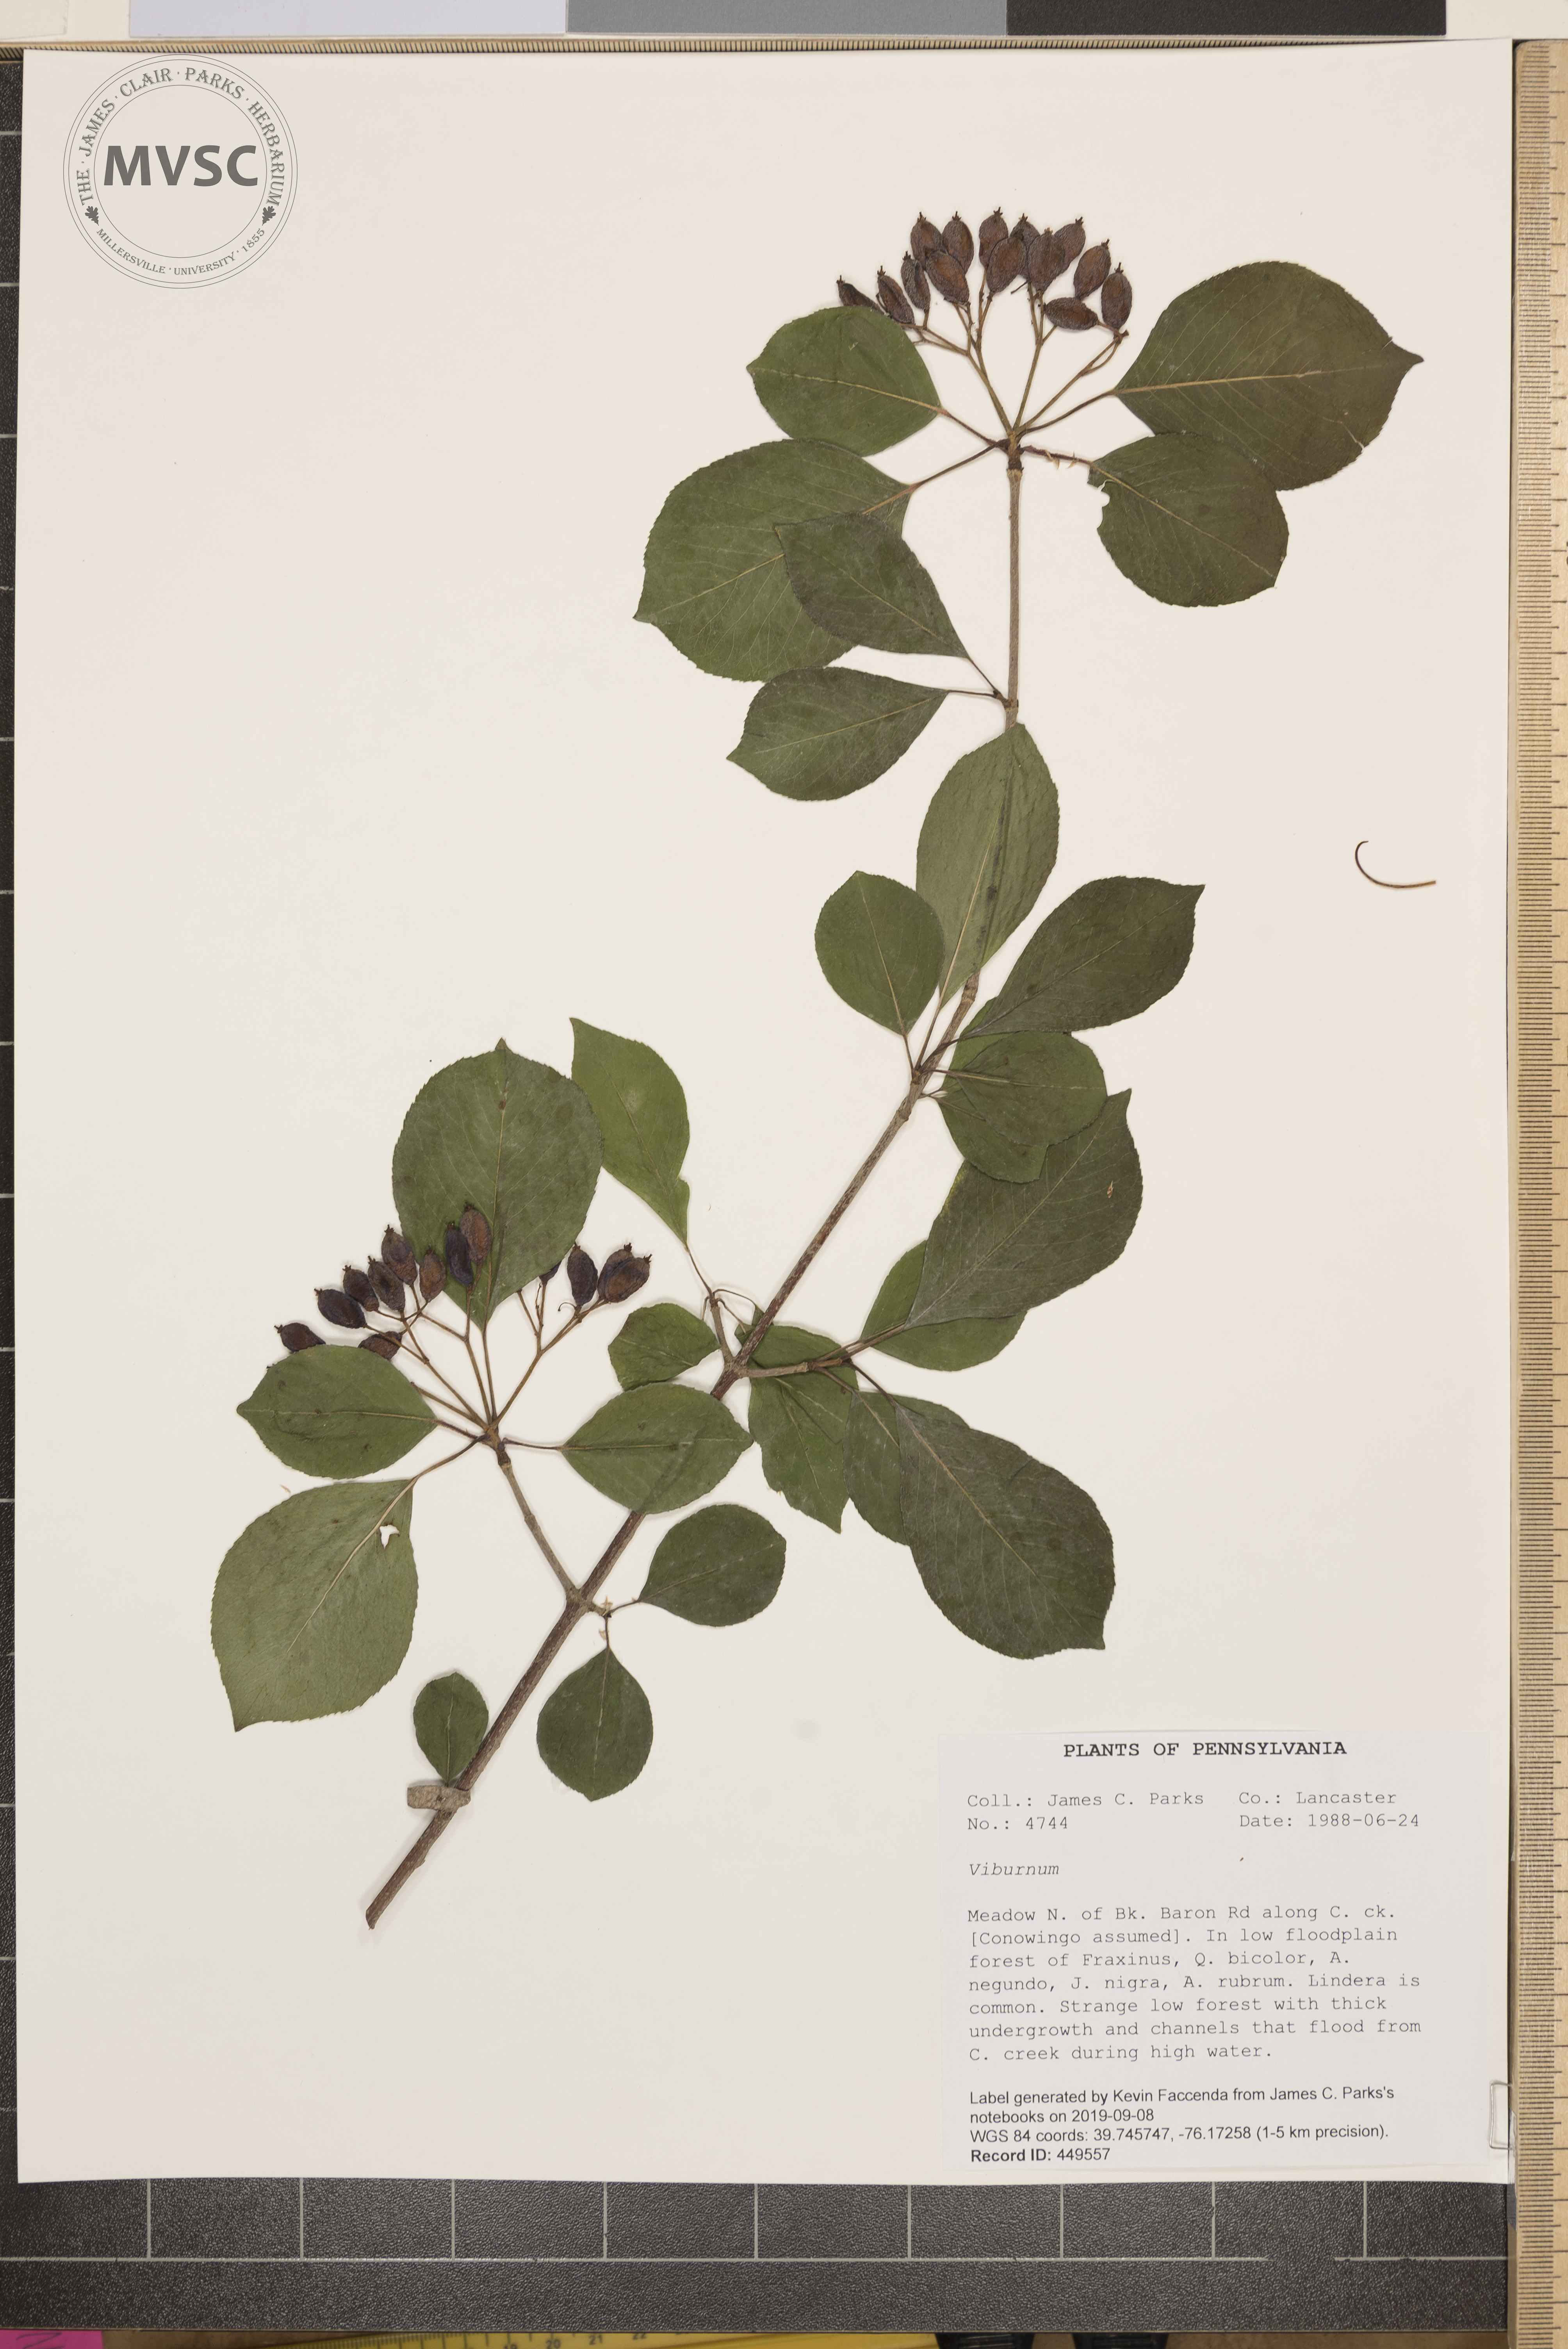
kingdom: Plantae
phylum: Tracheophyta
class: Magnoliopsida
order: Dipsacales
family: Viburnaceae
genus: Viburnum
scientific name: Viburnum lentago
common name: Black haw
